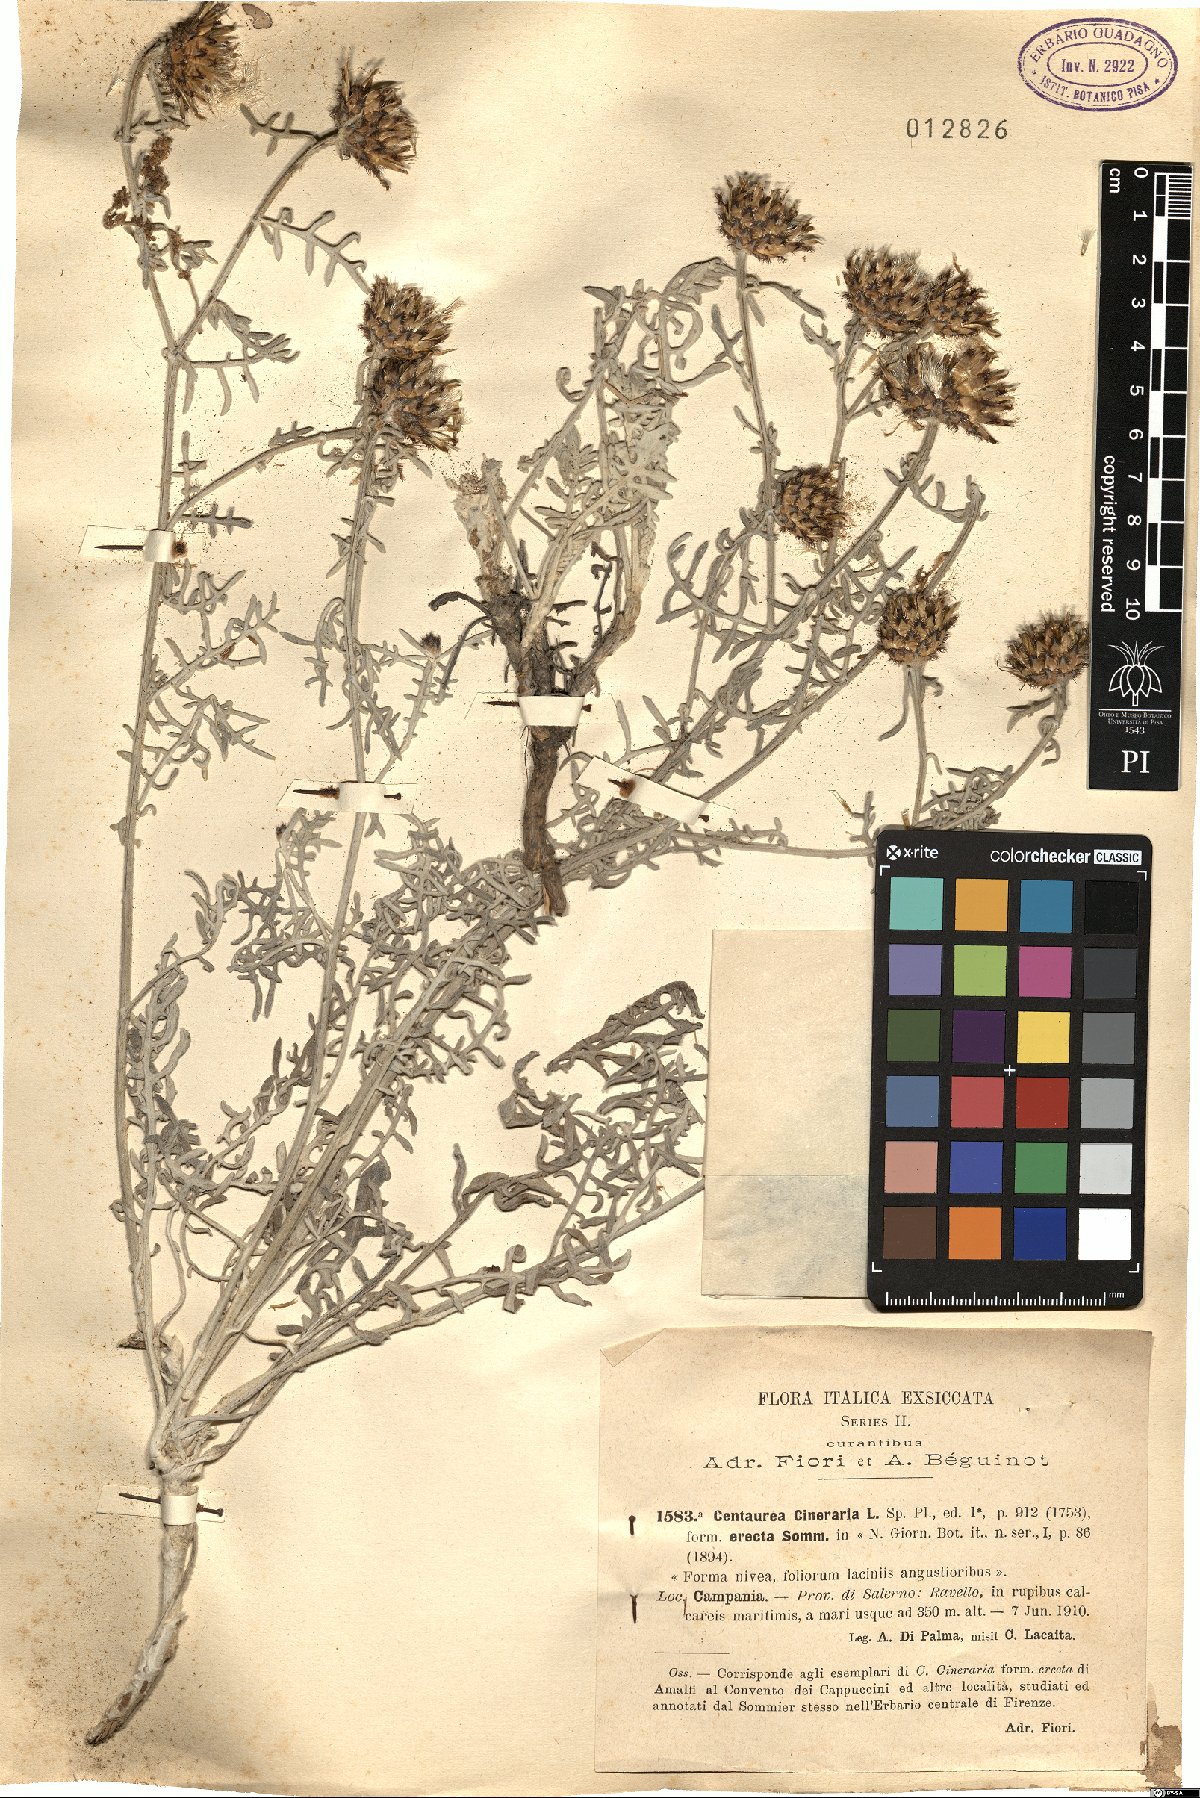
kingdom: Plantae
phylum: Tracheophyta
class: Magnoliopsida
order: Asterales
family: Asteraceae
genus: Centaurea
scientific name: Centaurea cineraria
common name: Dusty miller
